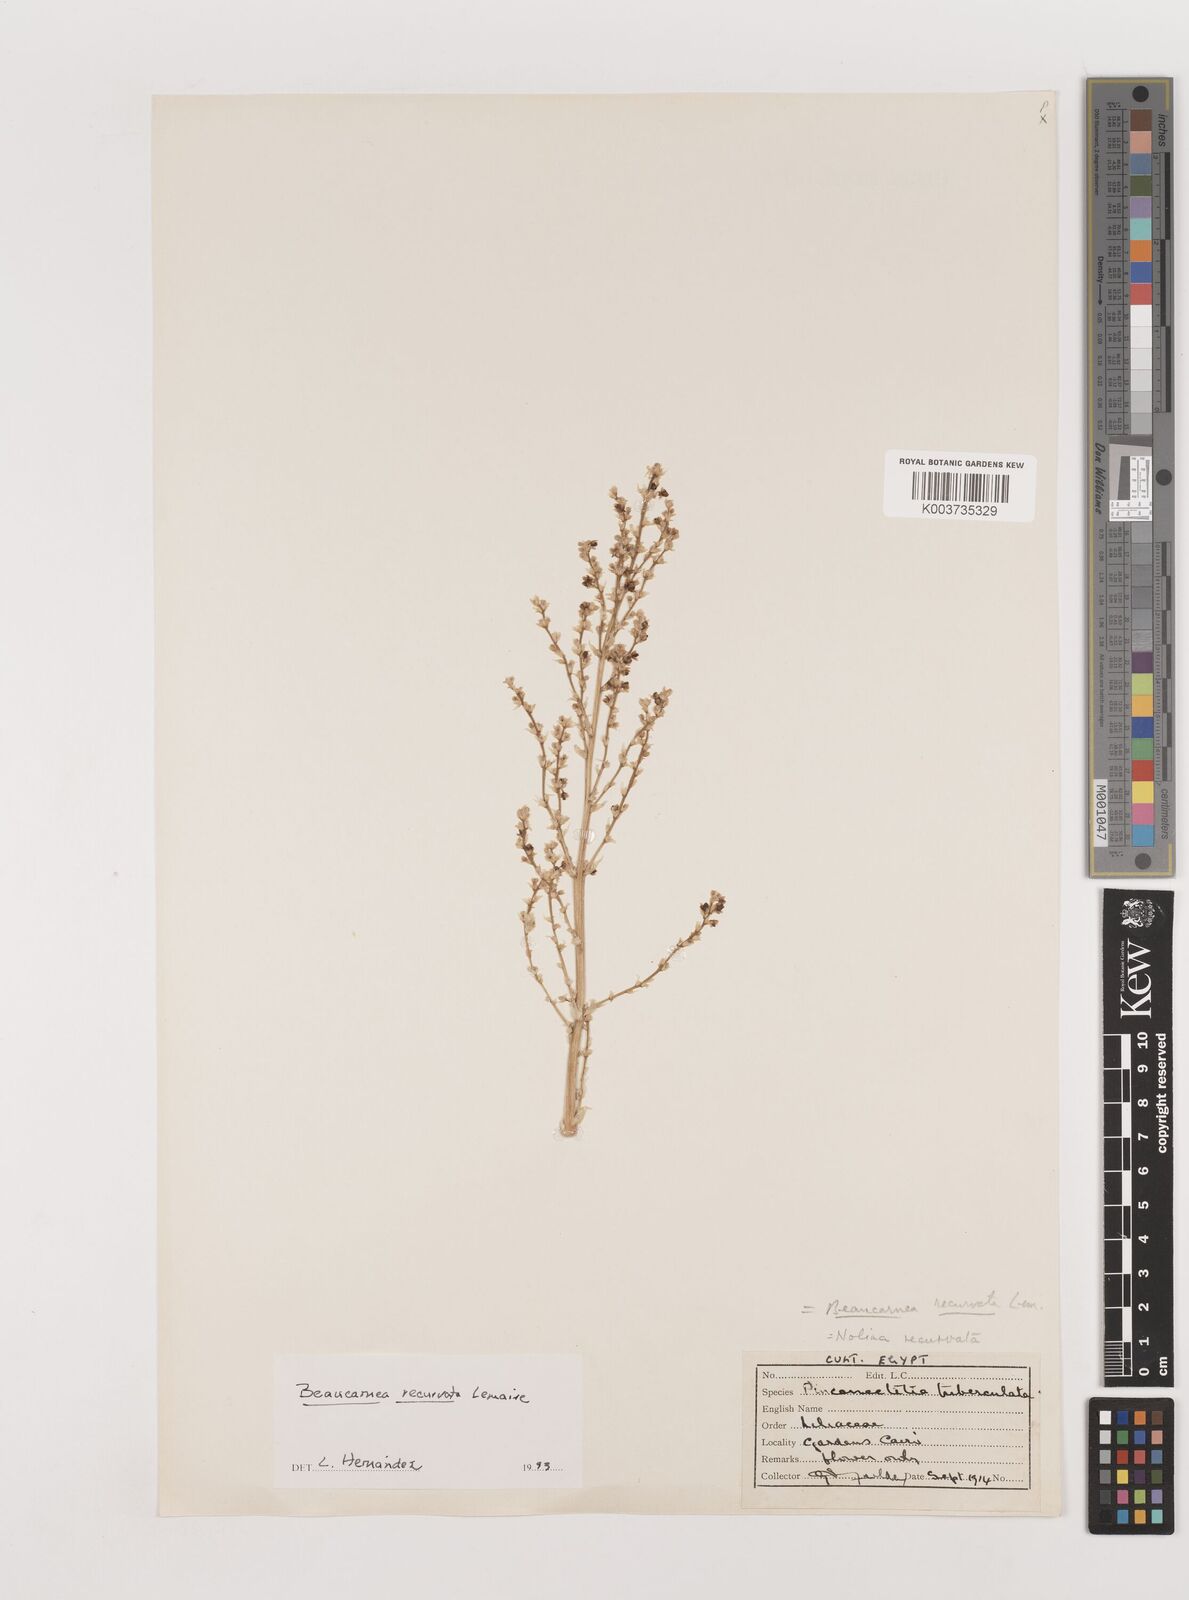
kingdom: Plantae
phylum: Tracheophyta
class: Liliopsida
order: Asparagales
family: Asparagaceae
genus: Beaucarnea
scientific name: Beaucarnea recurvata
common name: Stripy  ponytail
